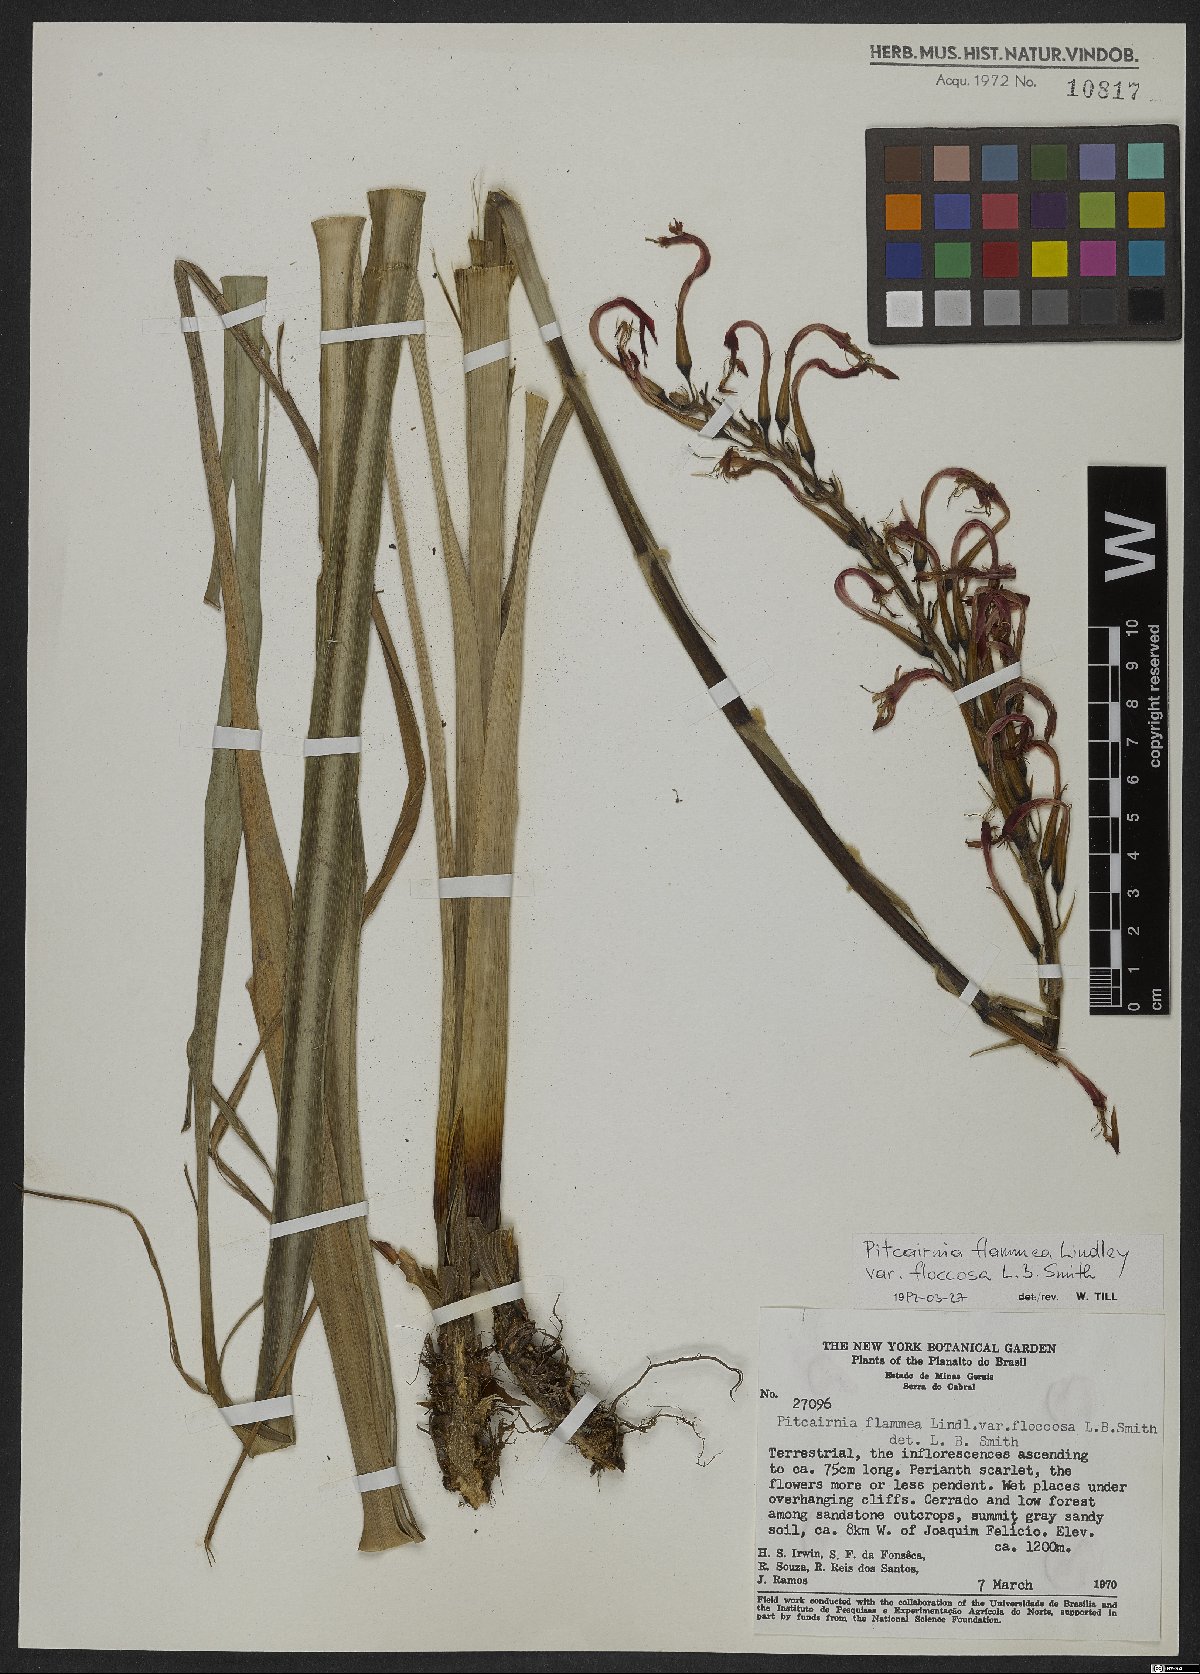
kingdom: Plantae
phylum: Tracheophyta
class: Liliopsida
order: Poales
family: Bromeliaceae
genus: Pitcairnia
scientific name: Pitcairnia flammea
